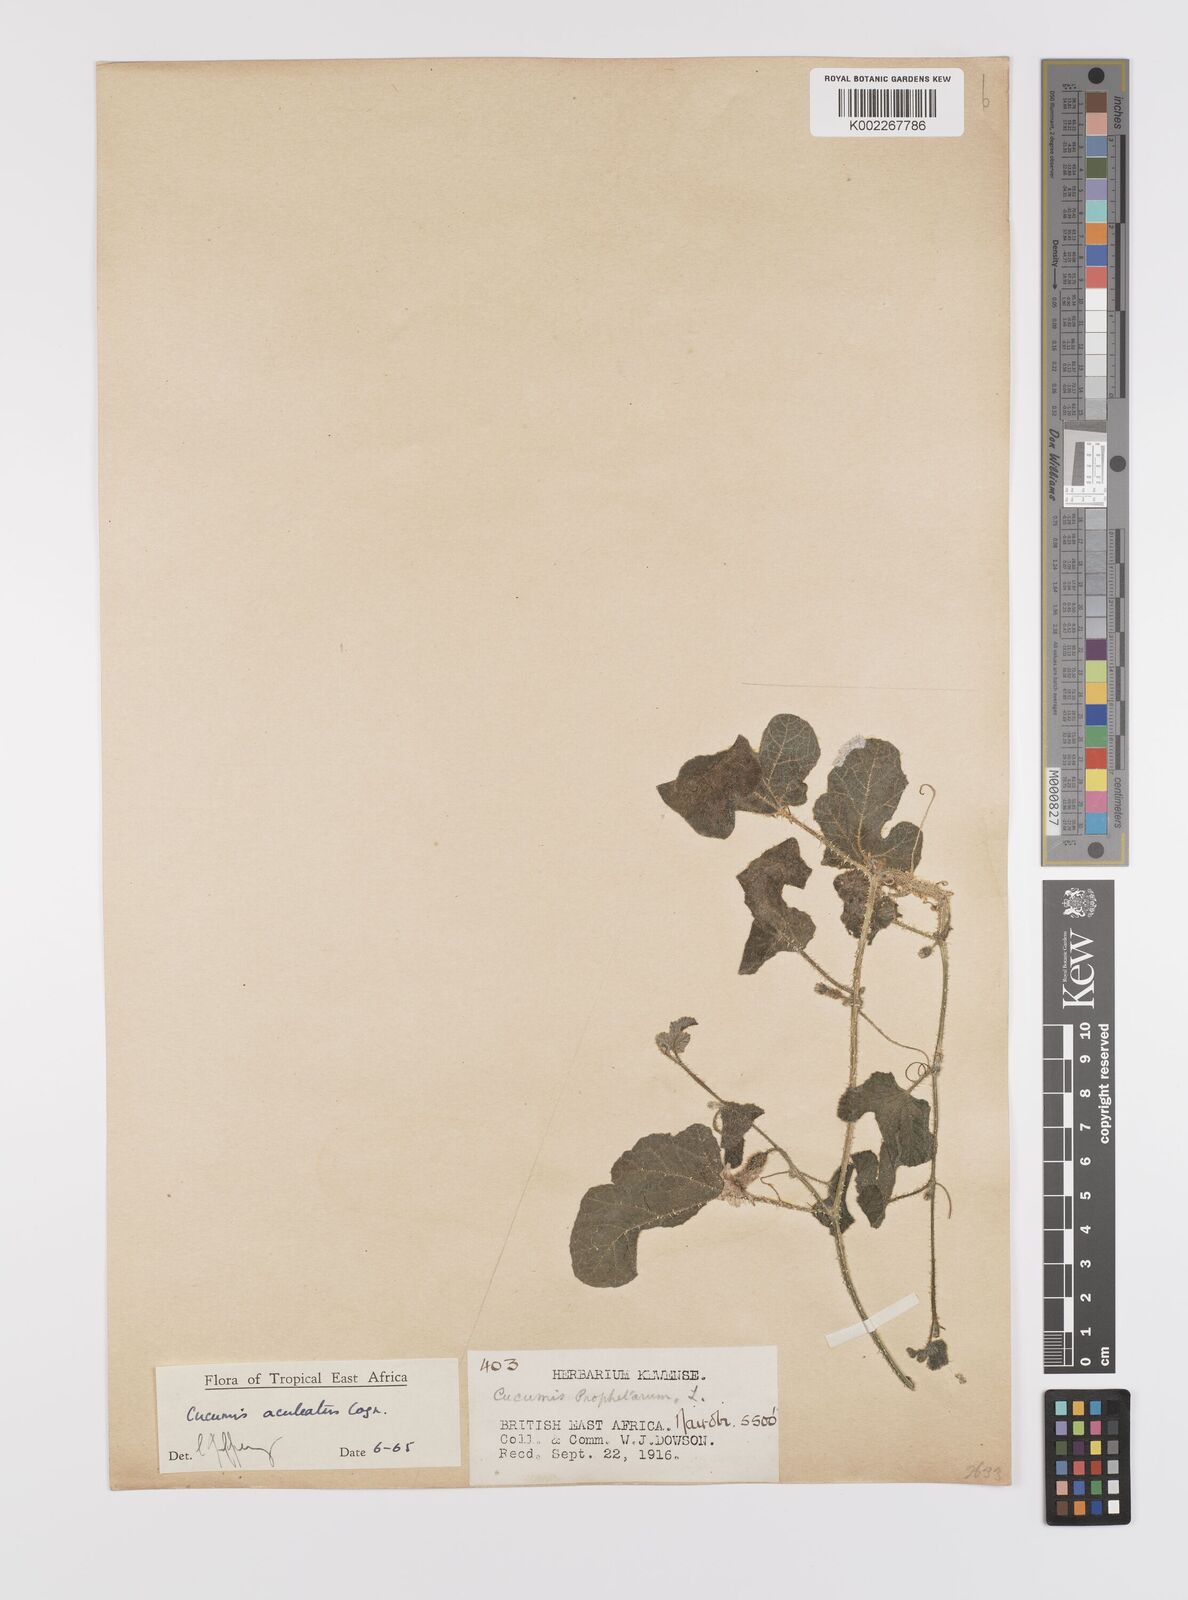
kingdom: Plantae
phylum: Tracheophyta
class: Magnoliopsida
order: Cucurbitales
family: Cucurbitaceae
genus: Cucumis
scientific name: Cucumis aculeatus
